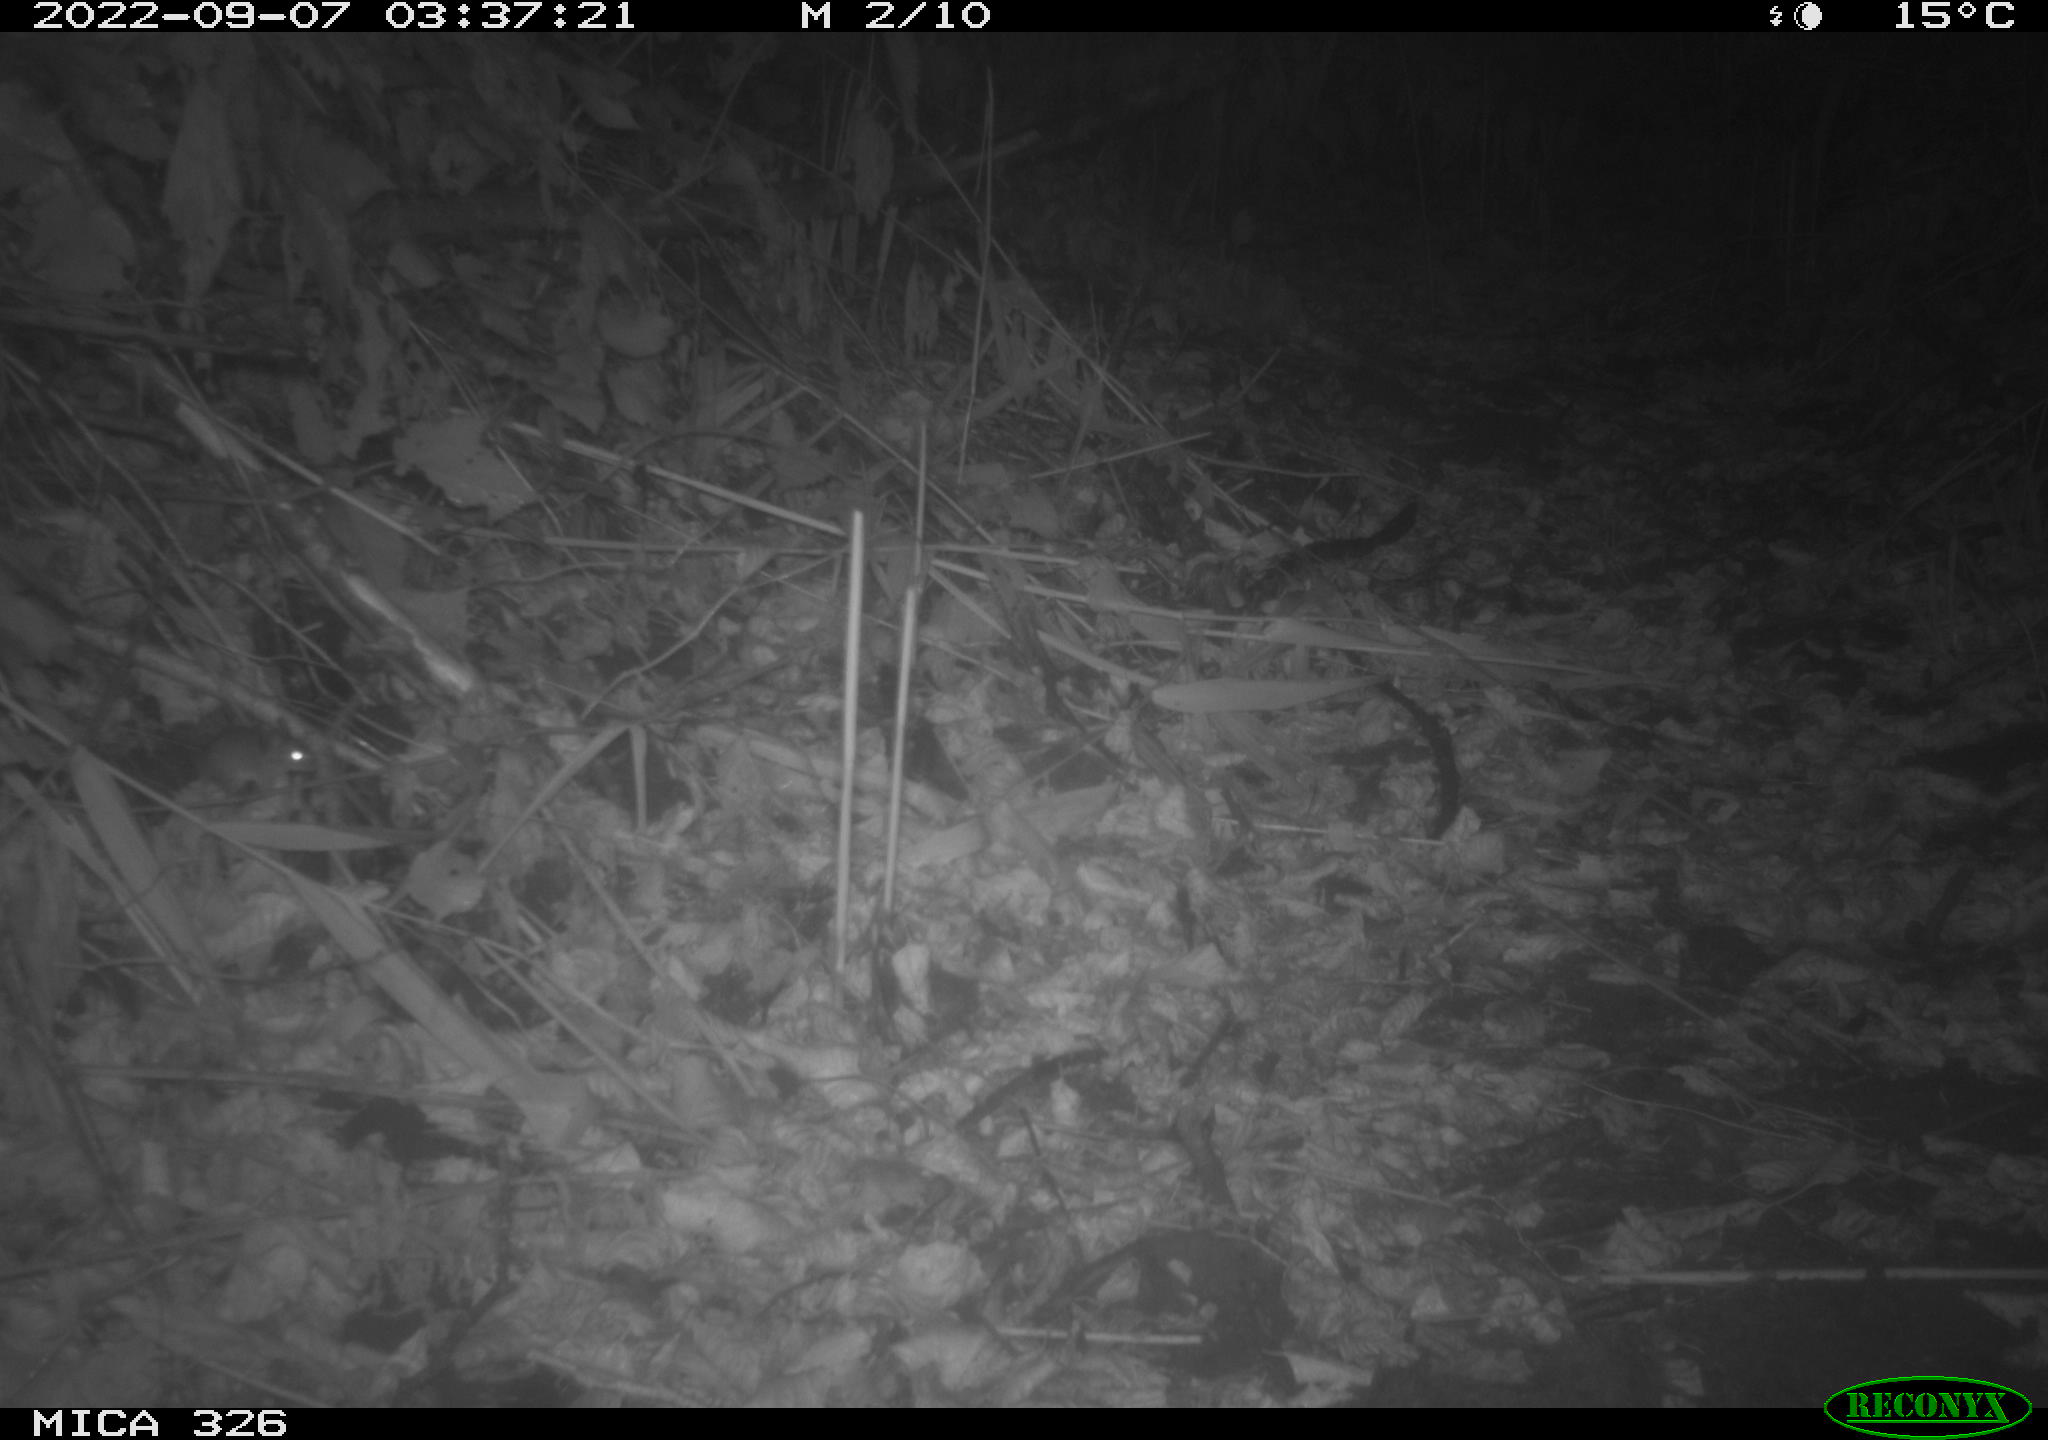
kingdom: Animalia
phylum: Chordata
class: Mammalia
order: Rodentia
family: Muridae
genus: Apodemus
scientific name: Apodemus sylvaticus
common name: Wood mouse
